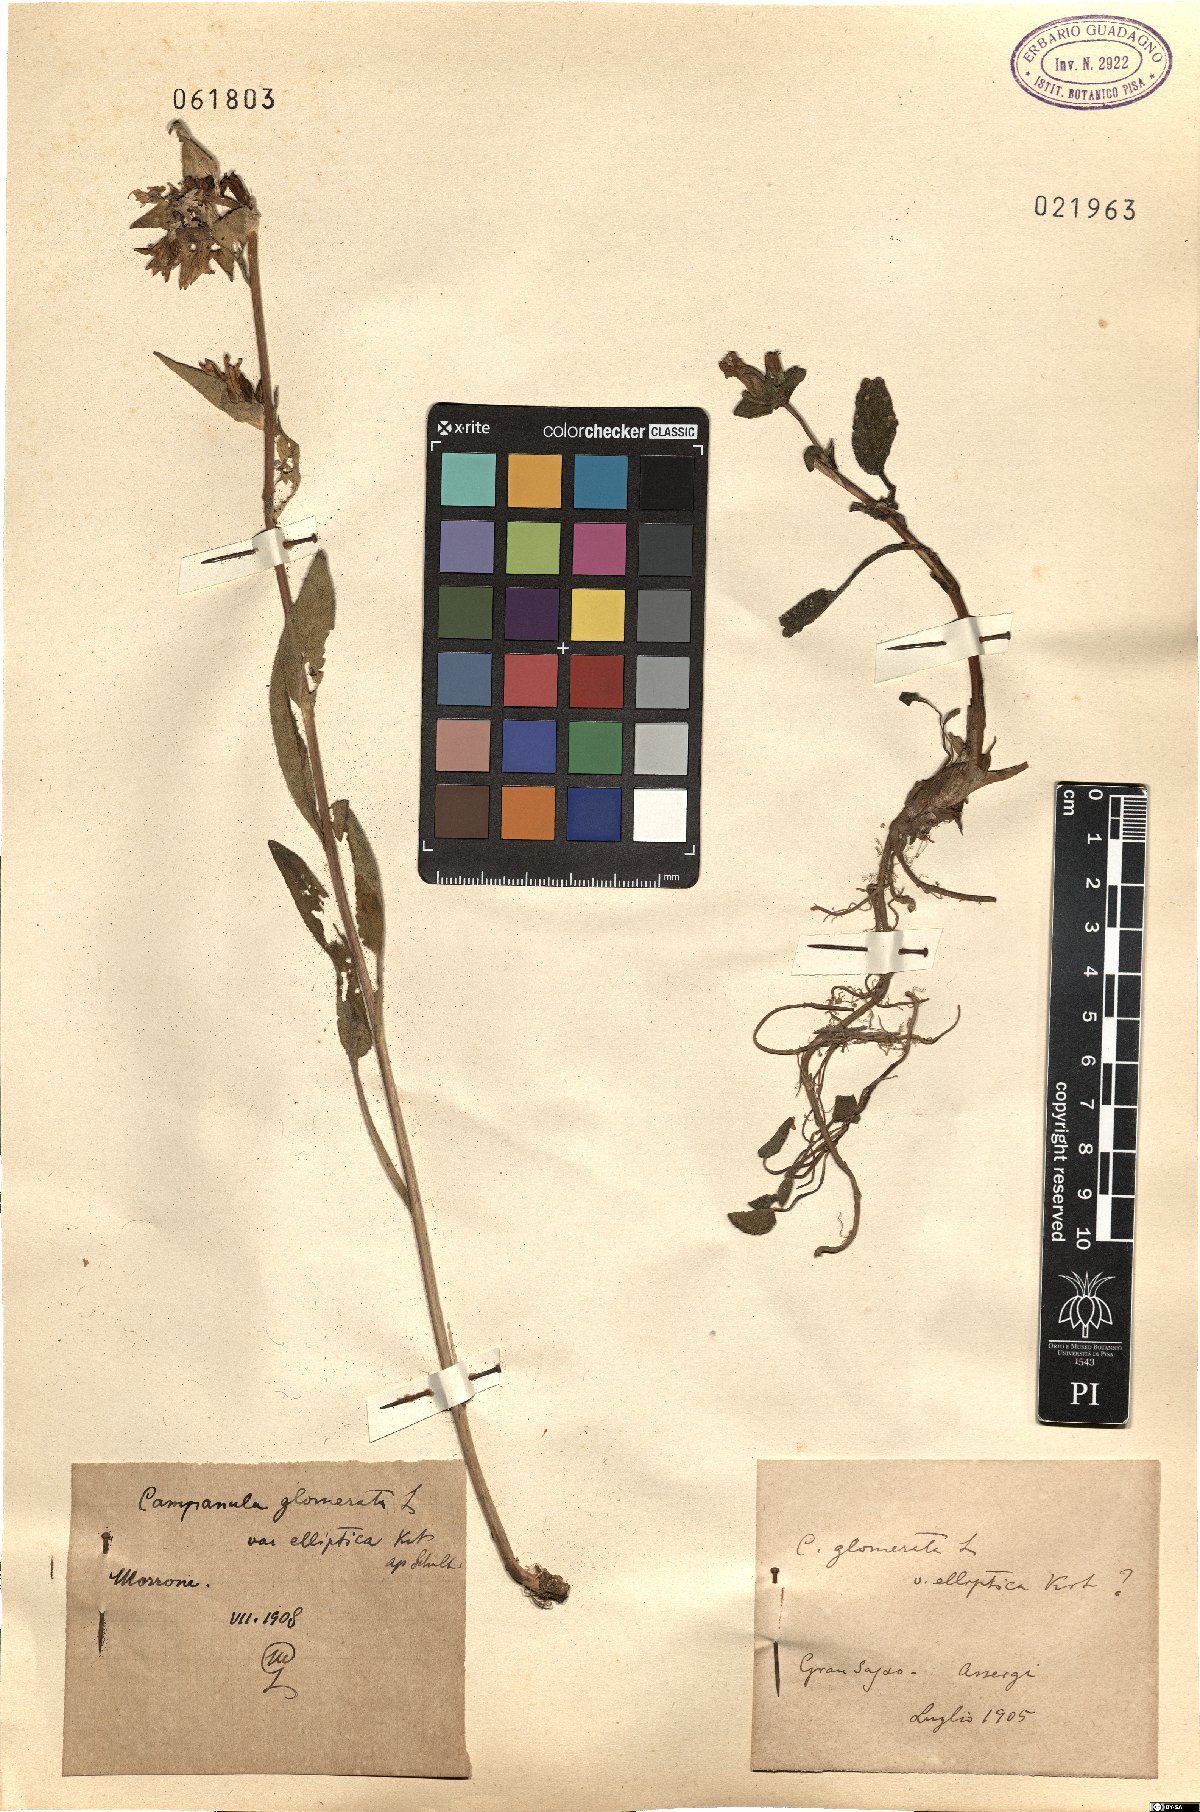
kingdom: Plantae
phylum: Tracheophyta
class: Magnoliopsida
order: Asterales
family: Campanulaceae
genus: Campanula
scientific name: Campanula glomerata
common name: Clustered bellflower
